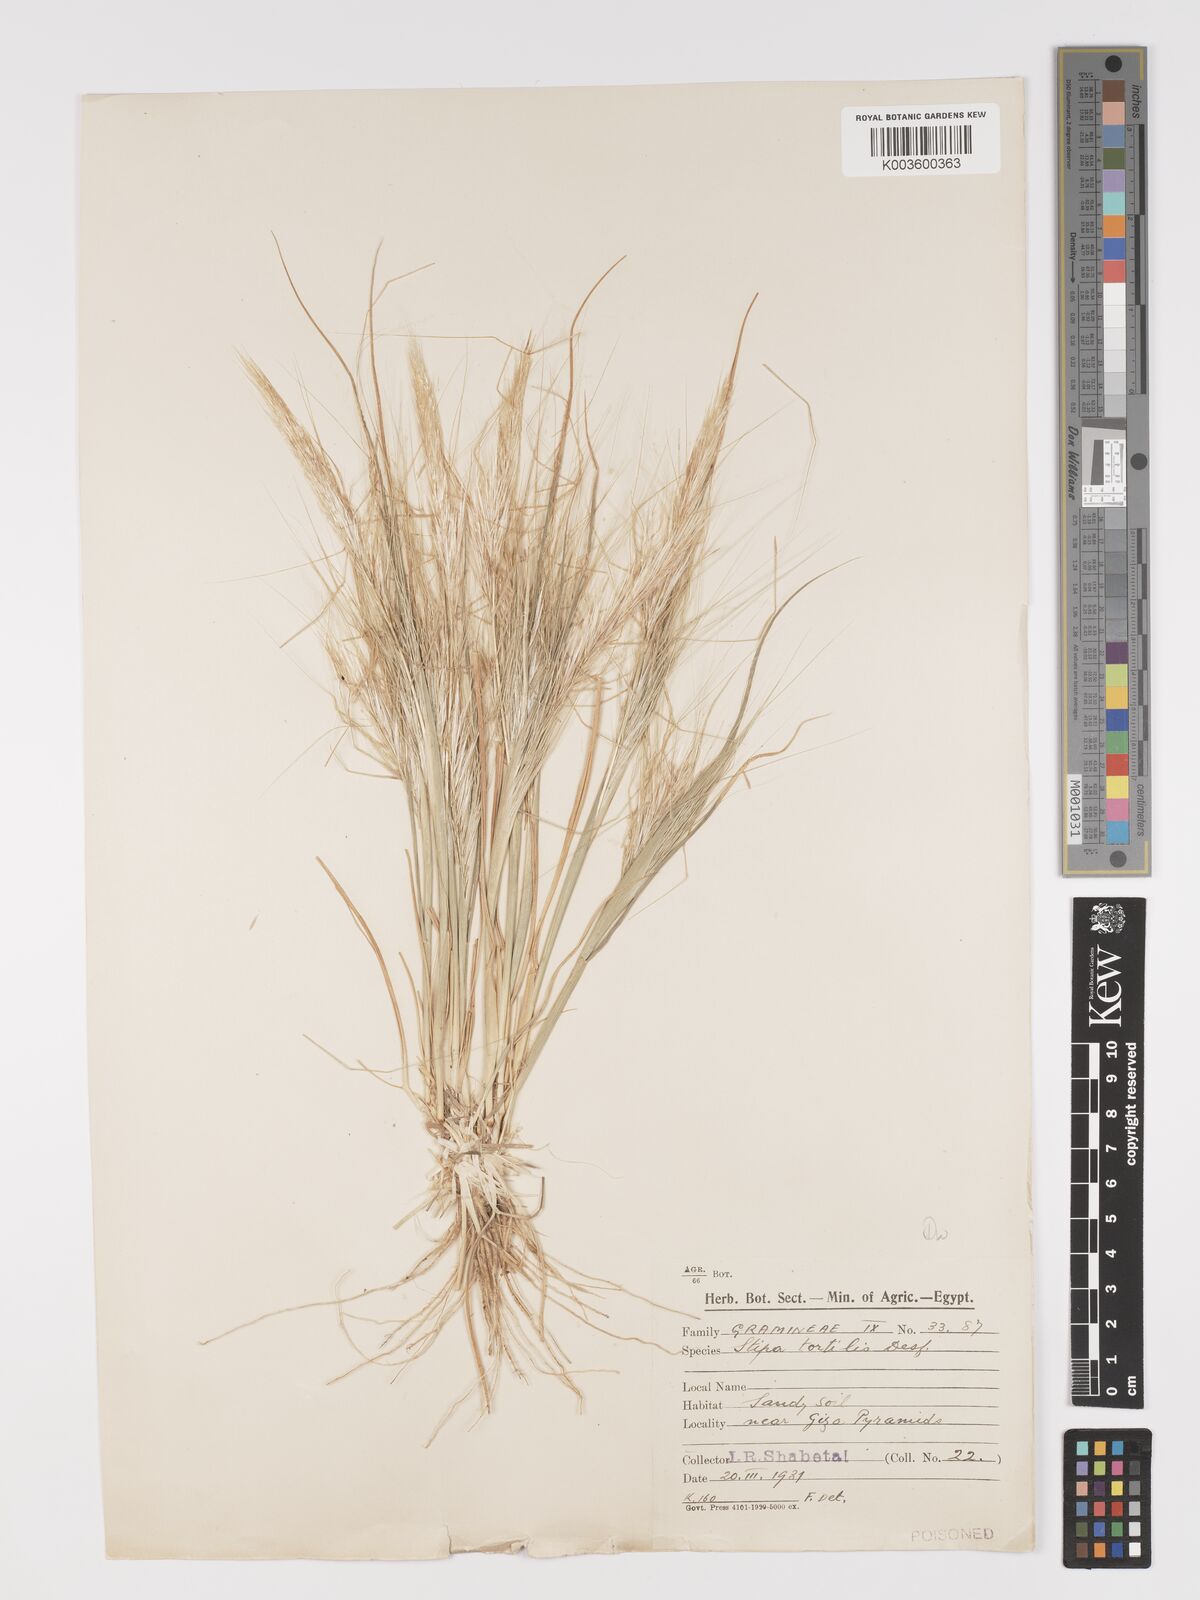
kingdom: Plantae
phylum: Tracheophyta
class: Liliopsida
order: Poales
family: Poaceae
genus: Stipellula
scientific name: Stipellula capensis
